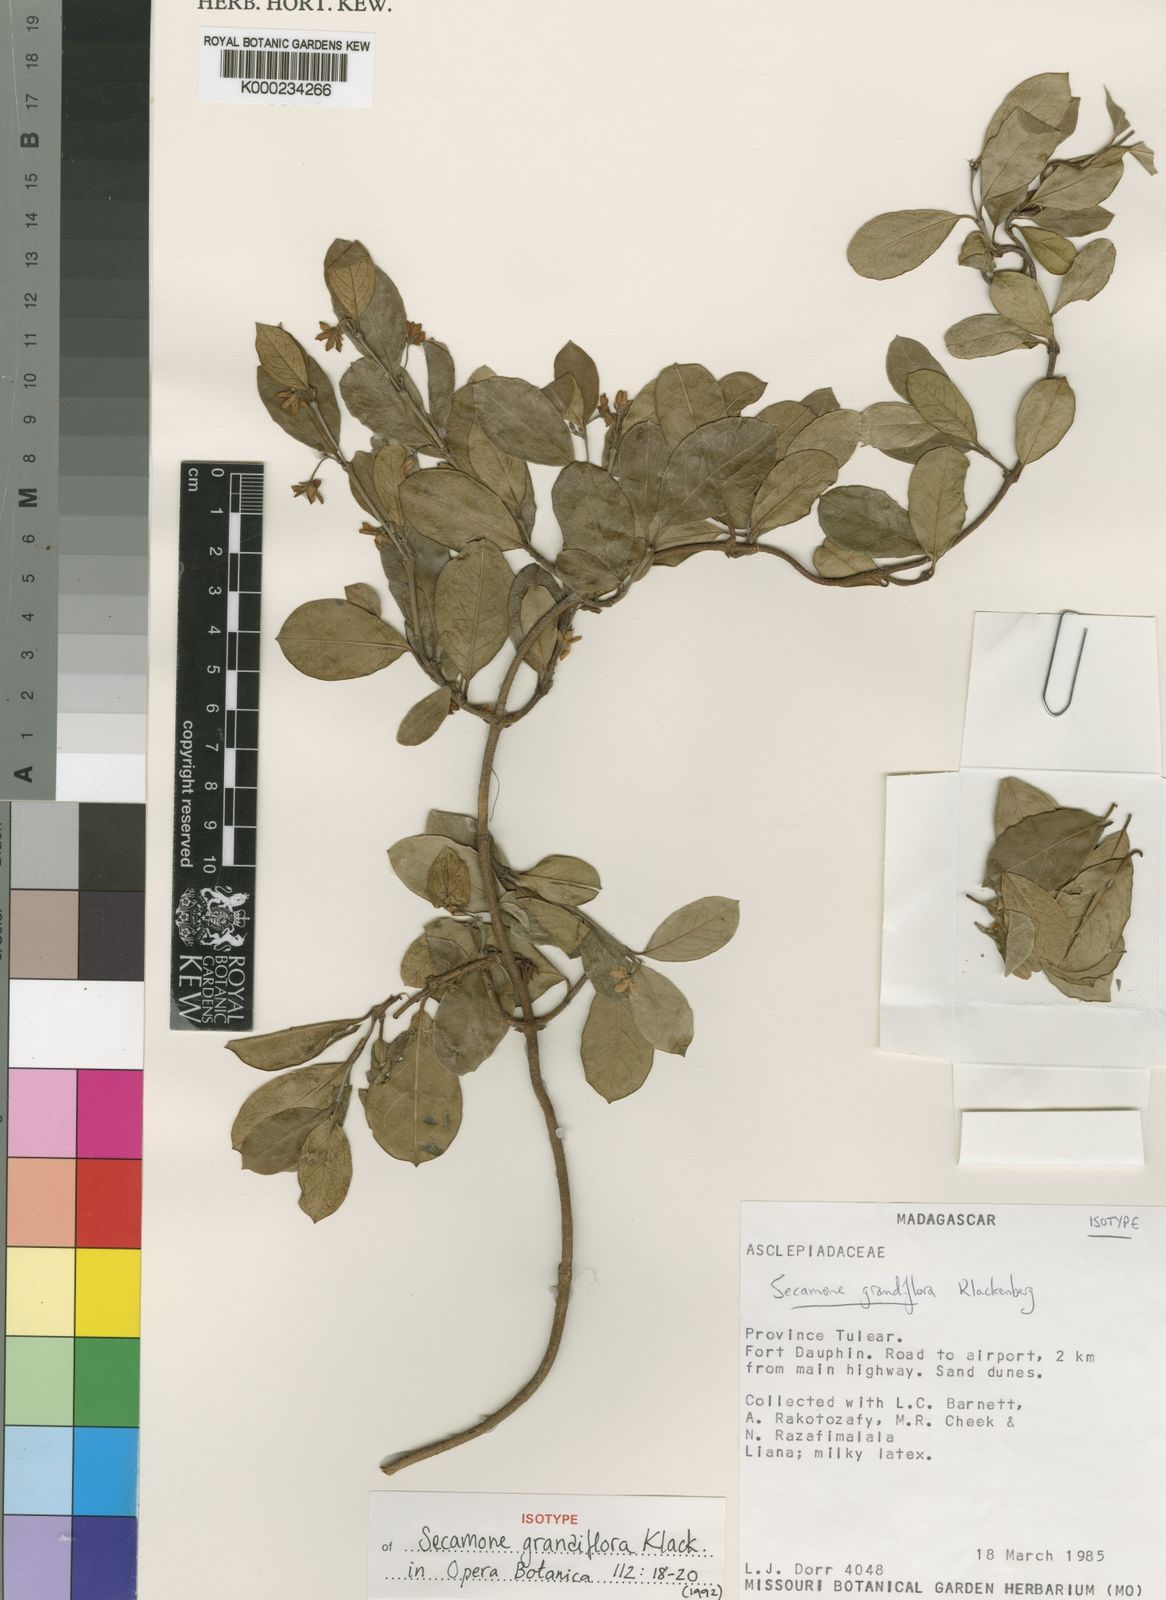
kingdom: Plantae
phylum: Tracheophyta
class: Magnoliopsida
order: Gentianales
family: Apocynaceae
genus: Secamone
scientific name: Secamone grandiflora
